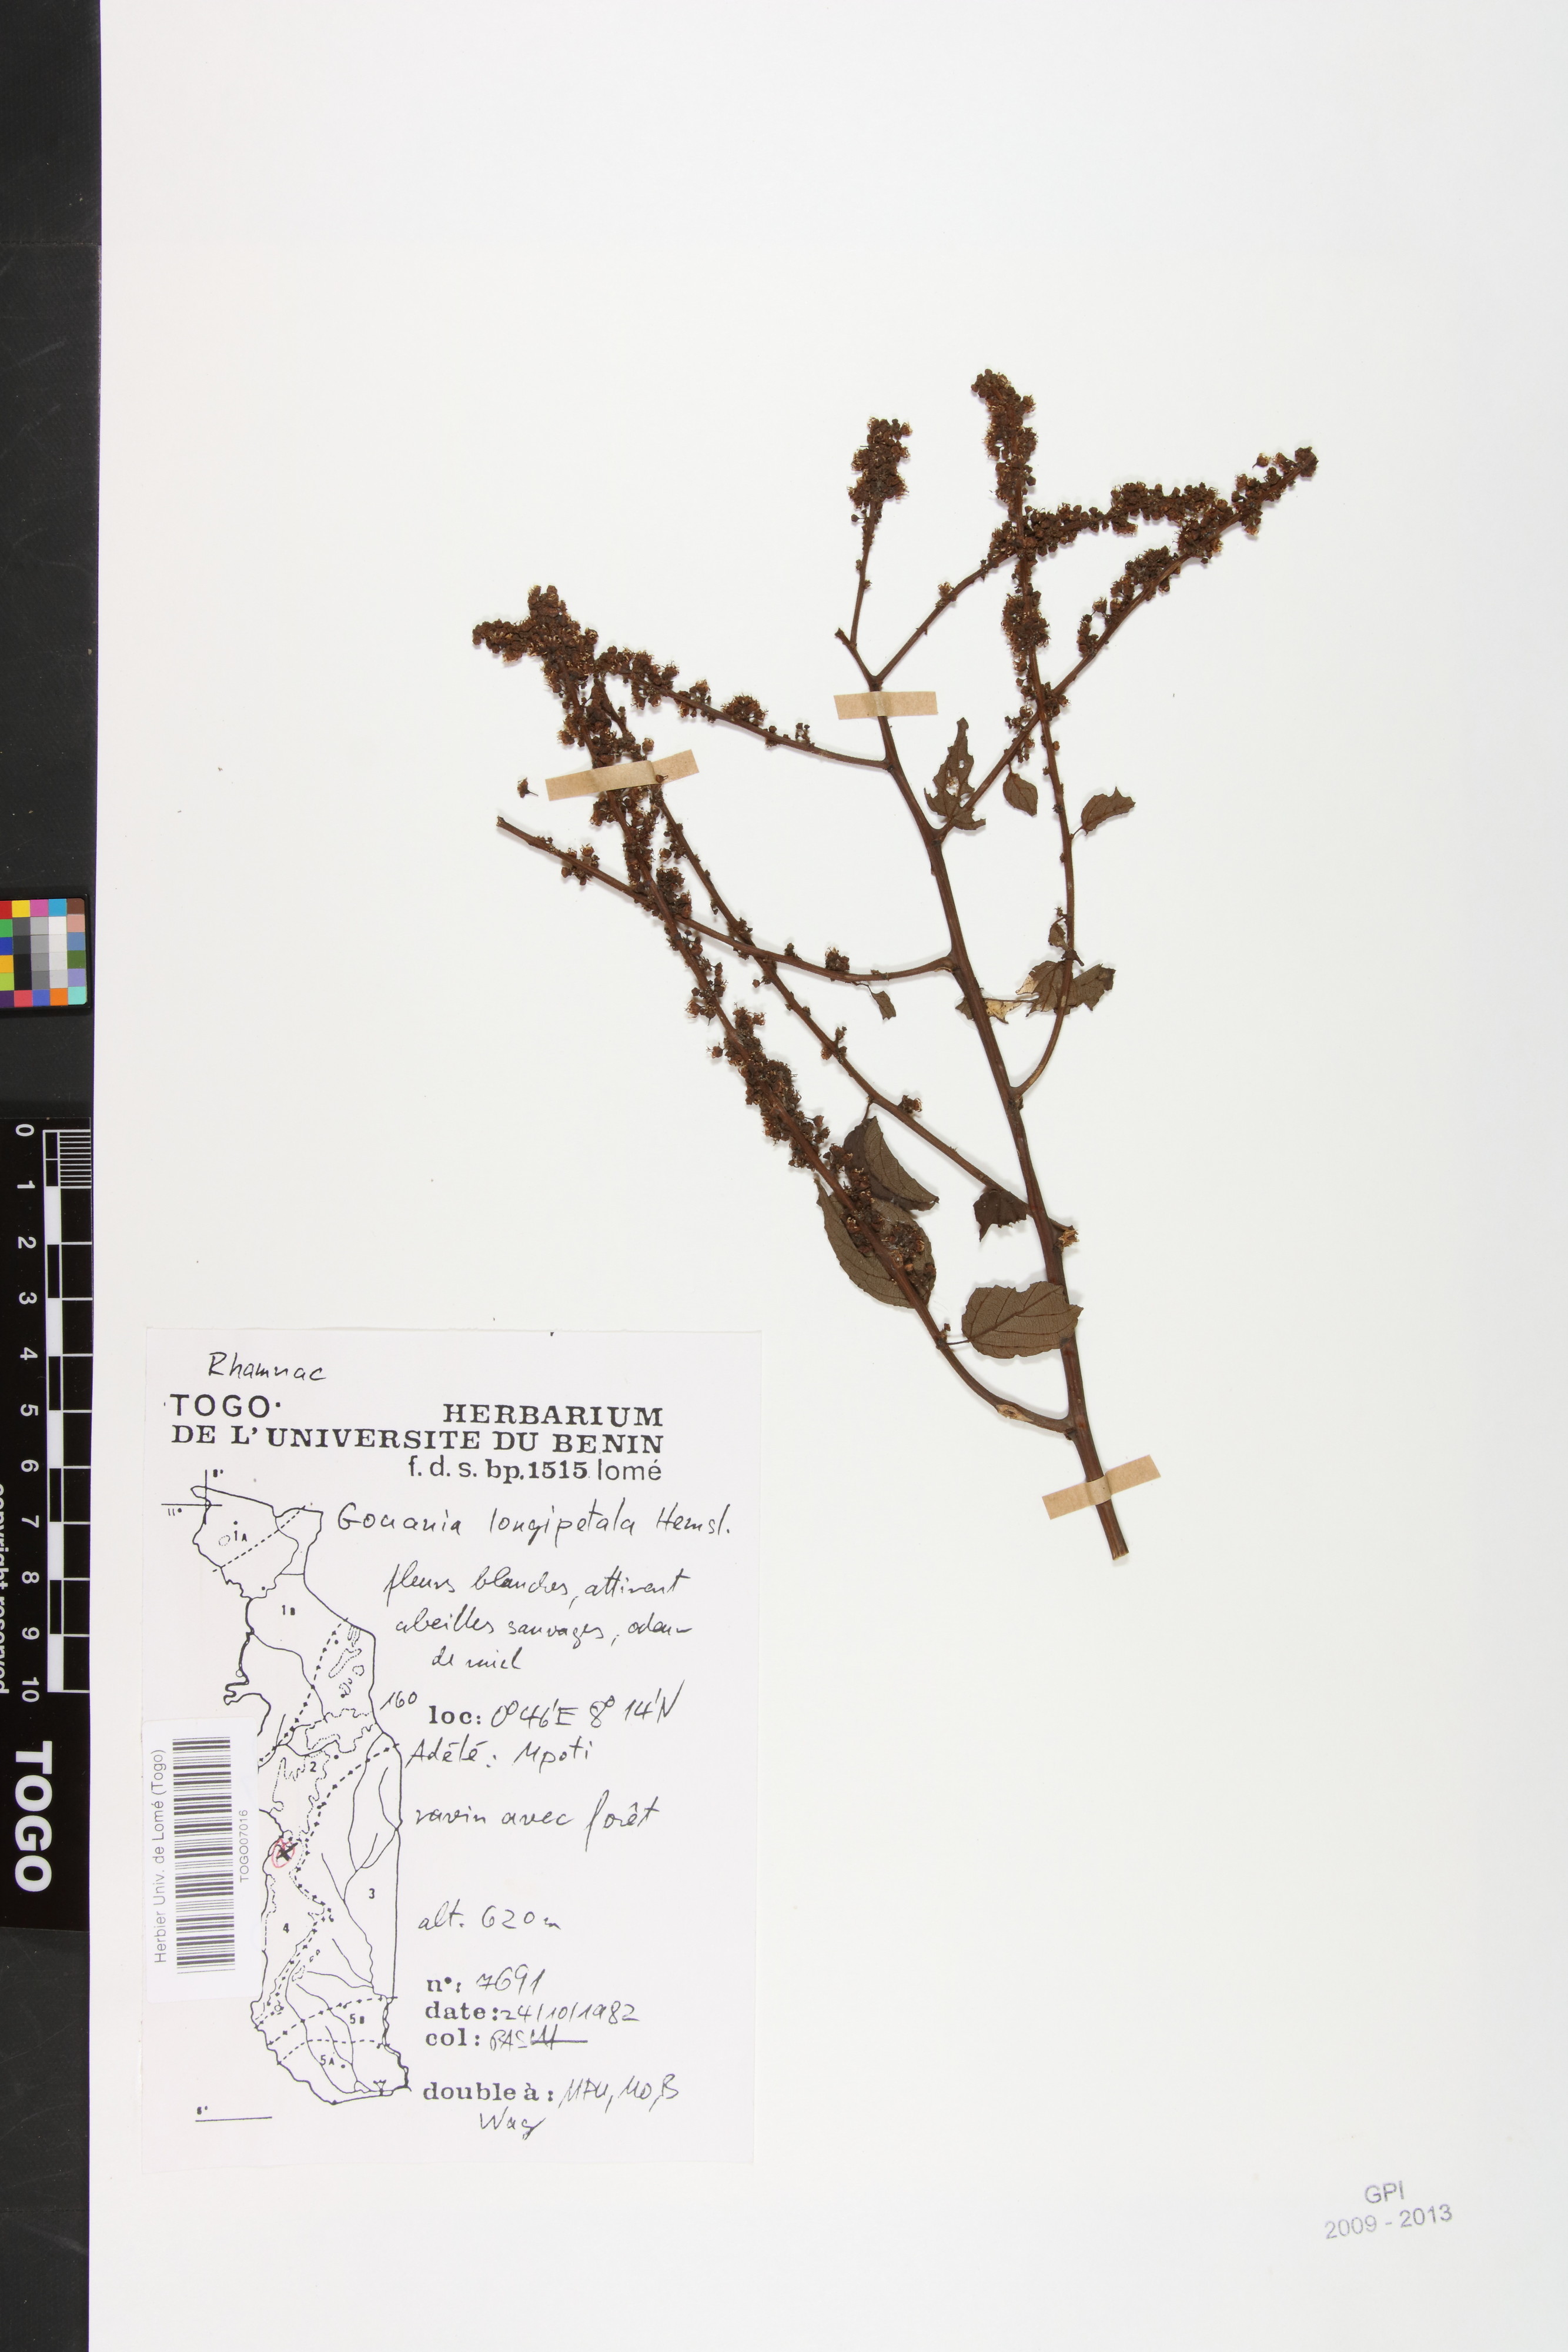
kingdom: Plantae
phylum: Tracheophyta
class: Magnoliopsida
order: Rosales
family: Rhamnaceae
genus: Gouania
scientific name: Gouania longipetala
